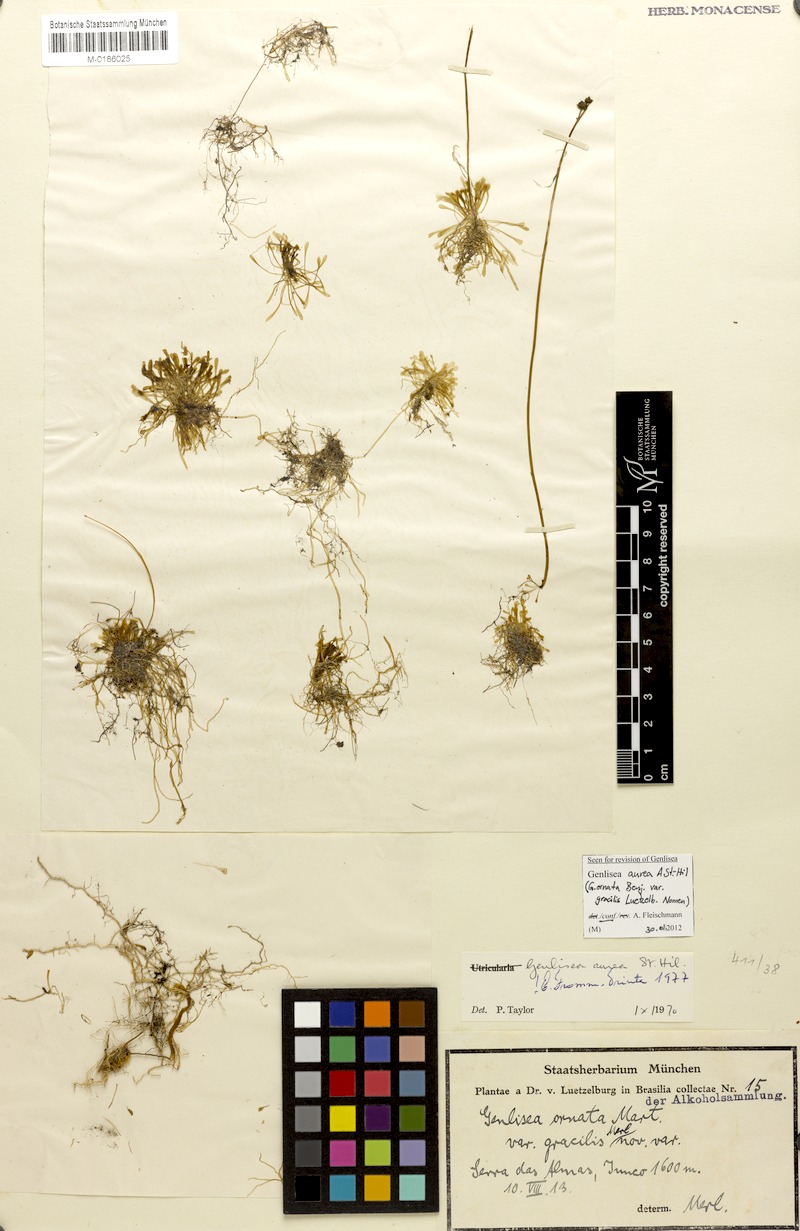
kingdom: Plantae
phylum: Tracheophyta
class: Magnoliopsida
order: Lamiales
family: Lentibulariaceae
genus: Genlisea
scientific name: Genlisea aurea
